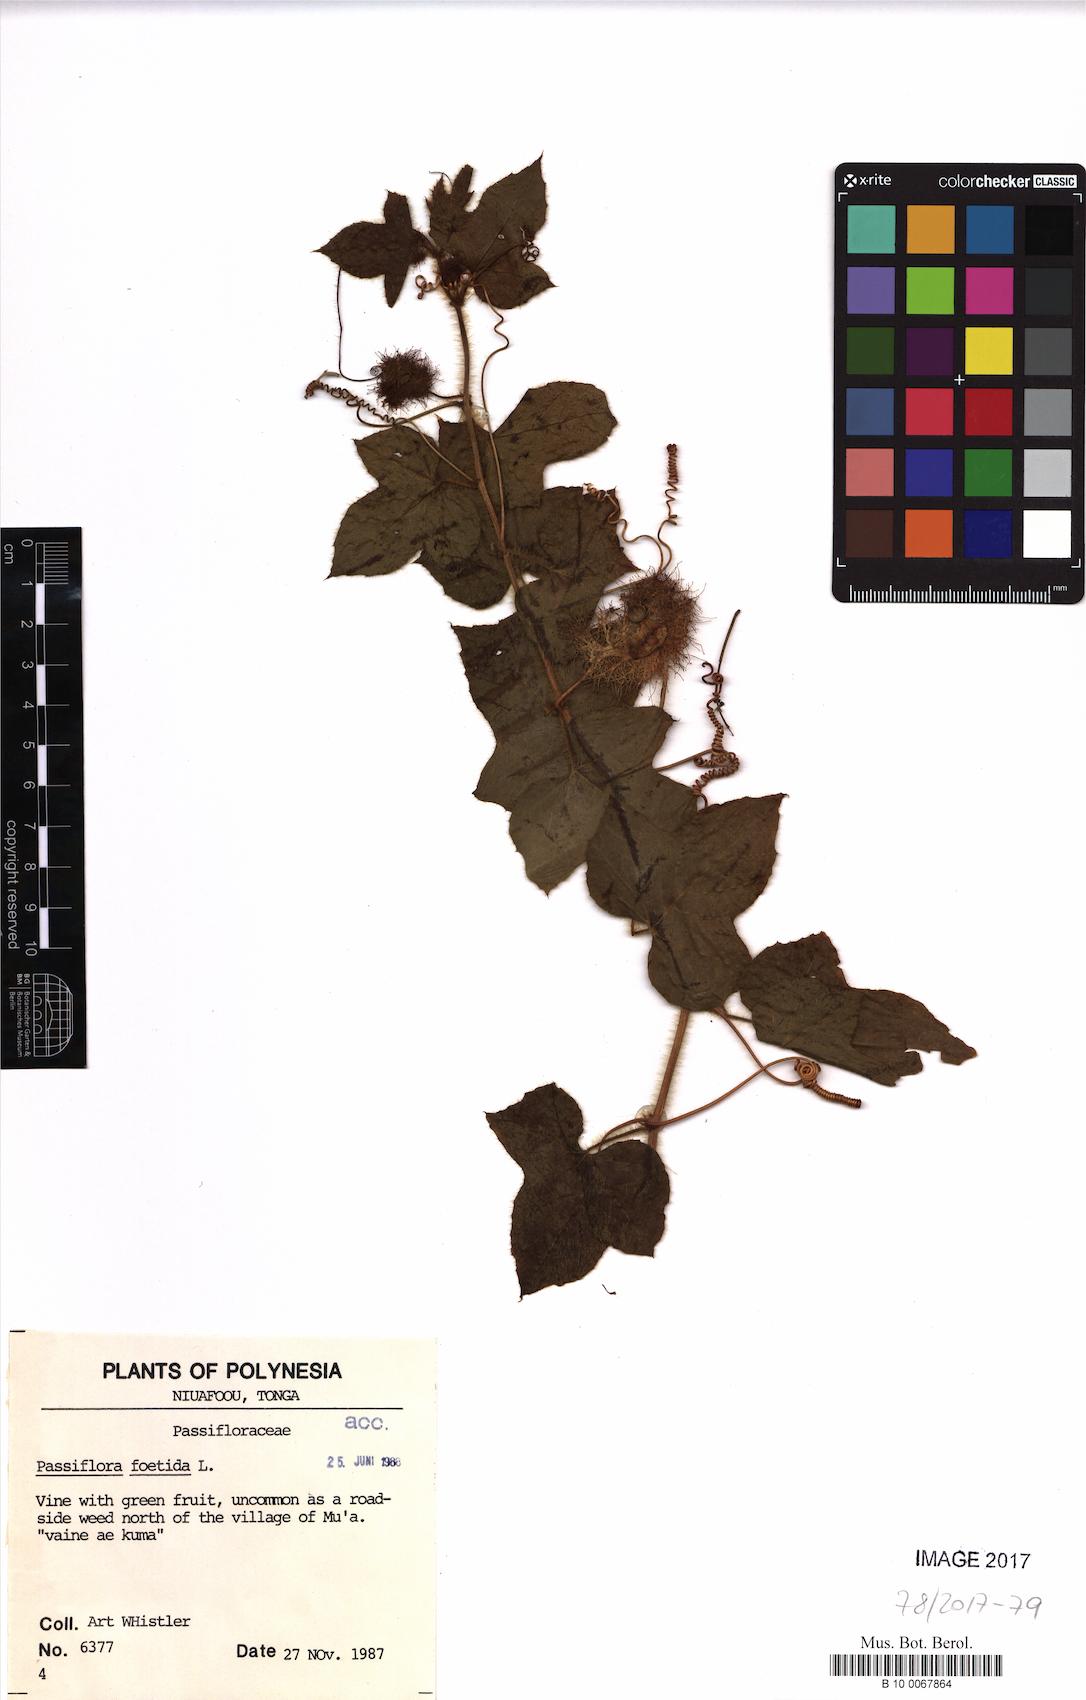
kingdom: Plantae
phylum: Tracheophyta
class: Magnoliopsida
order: Malpighiales
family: Passifloraceae
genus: Passiflora
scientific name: Passiflora foetida
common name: Fetid passionflower
